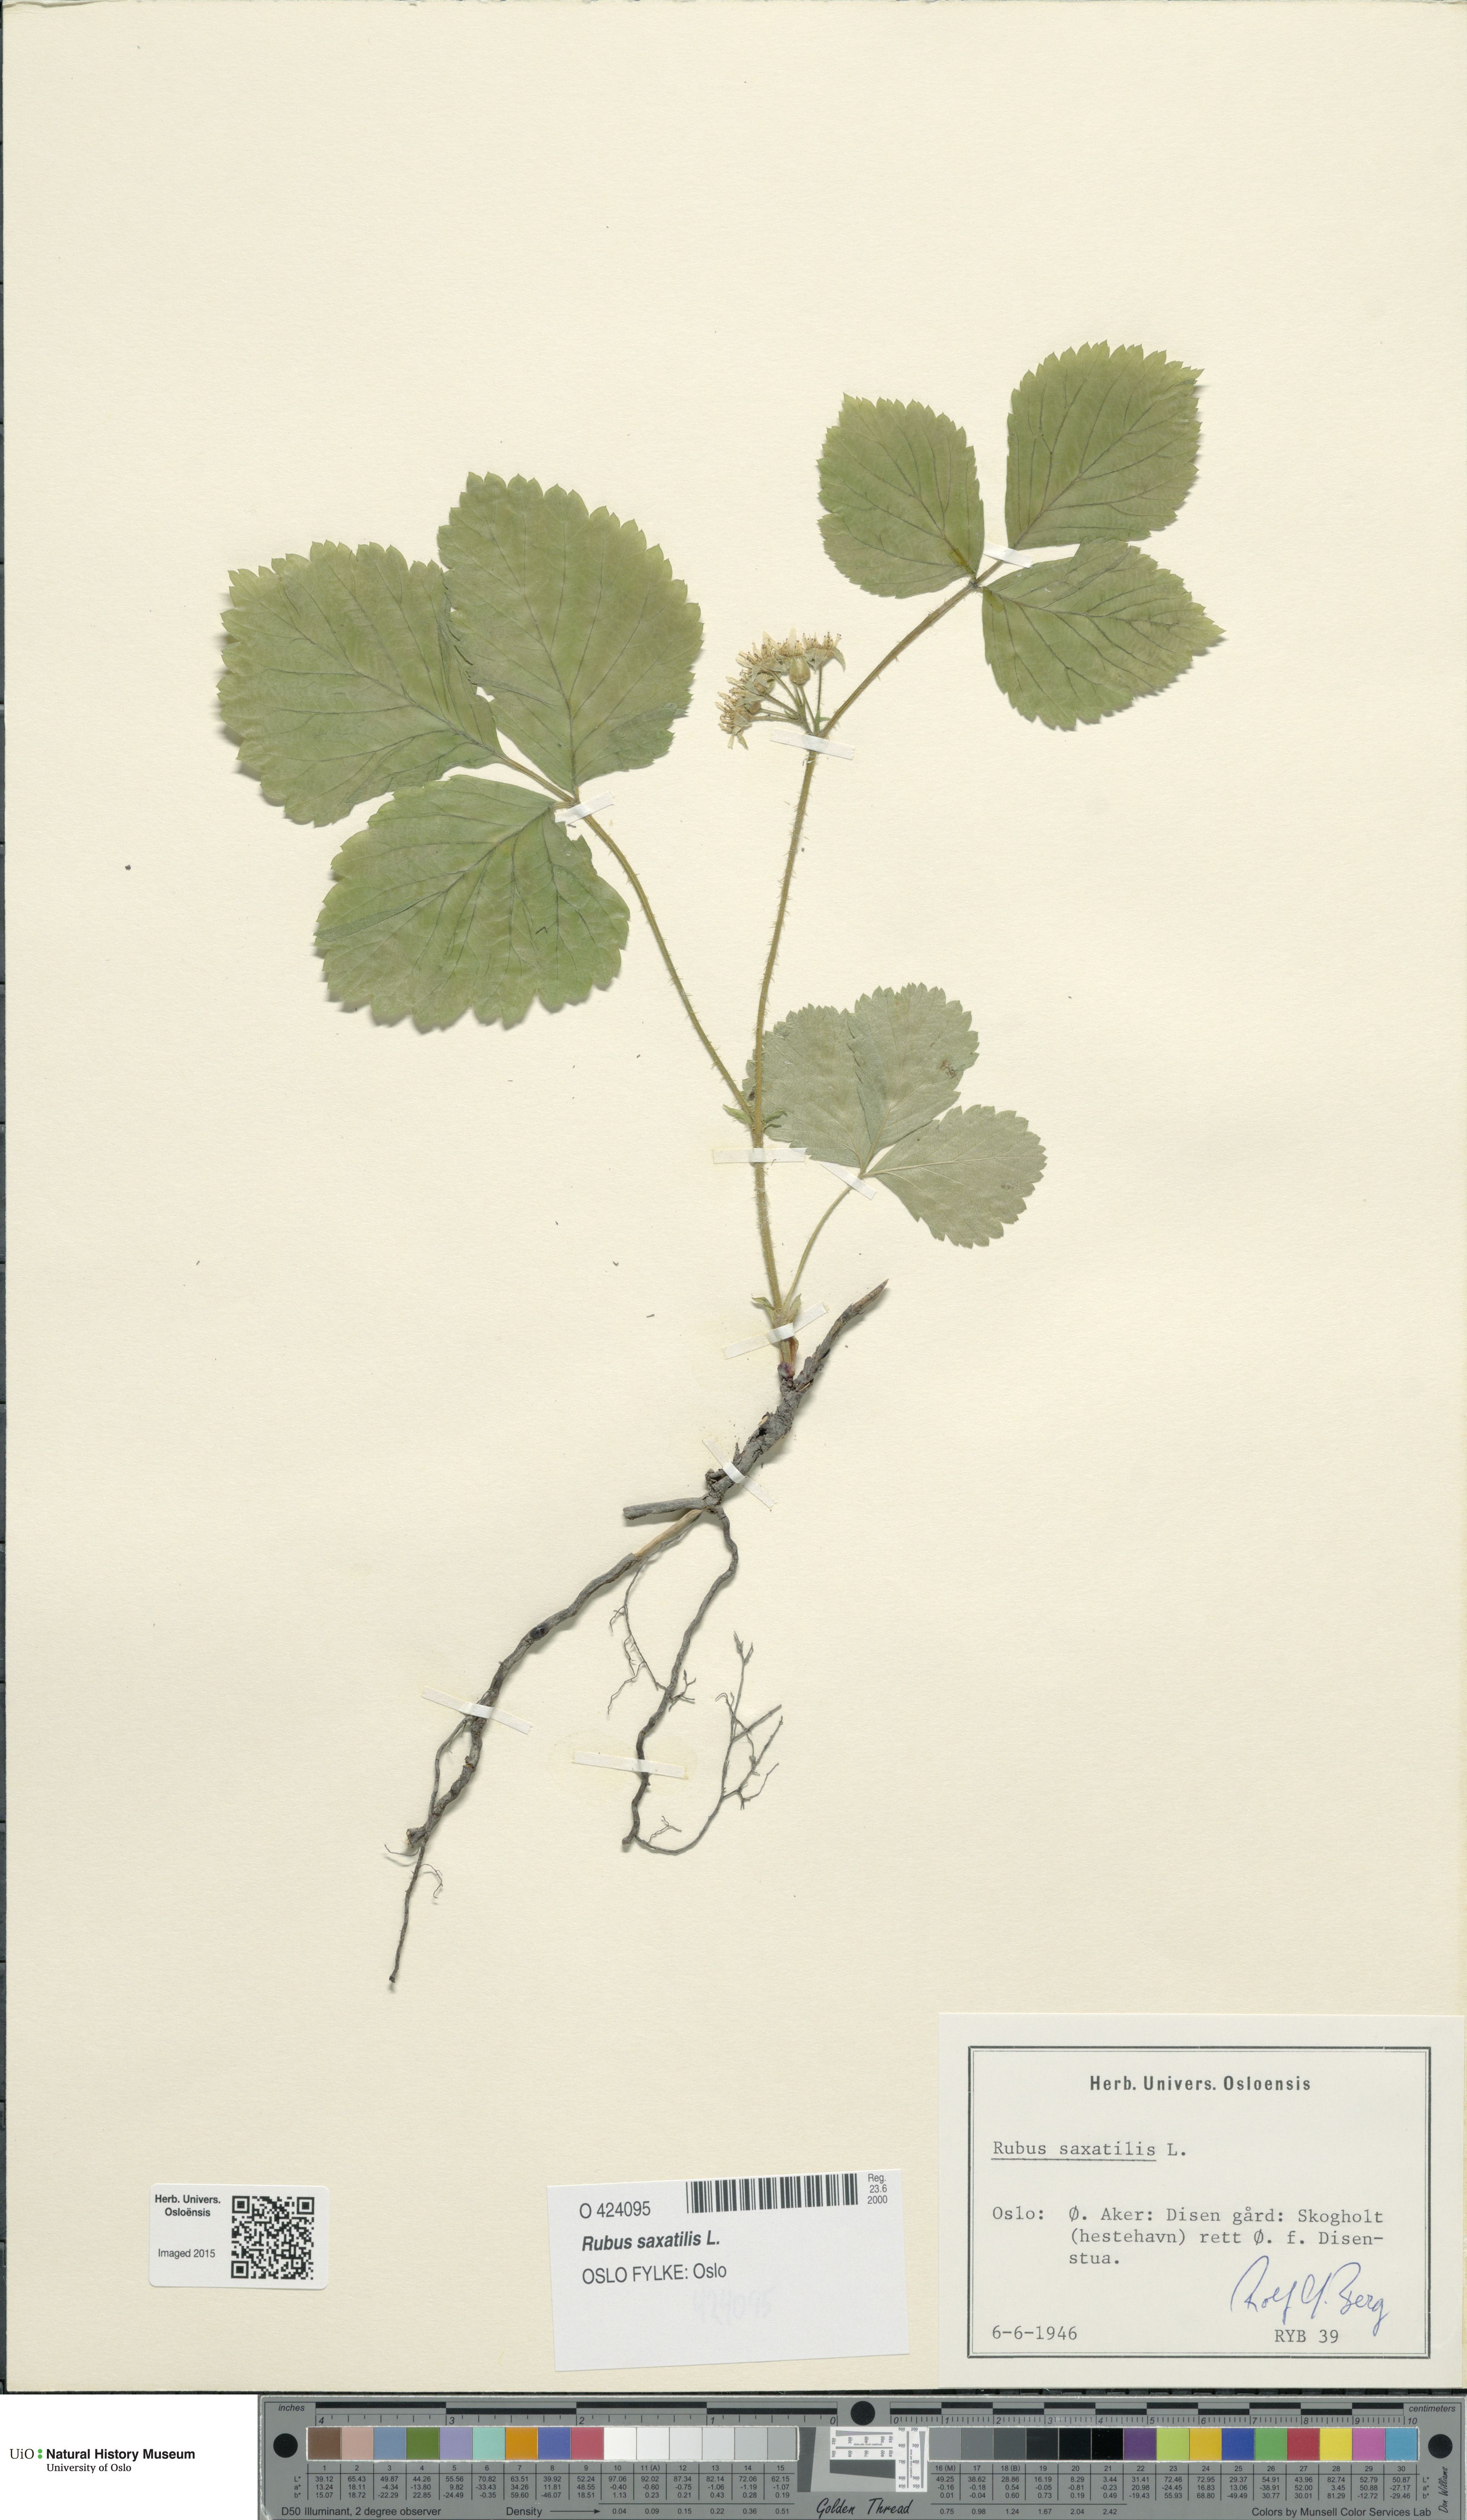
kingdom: Plantae
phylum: Tracheophyta
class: Magnoliopsida
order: Rosales
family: Rosaceae
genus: Rubus
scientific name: Rubus saxatilis
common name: Stone bramble
